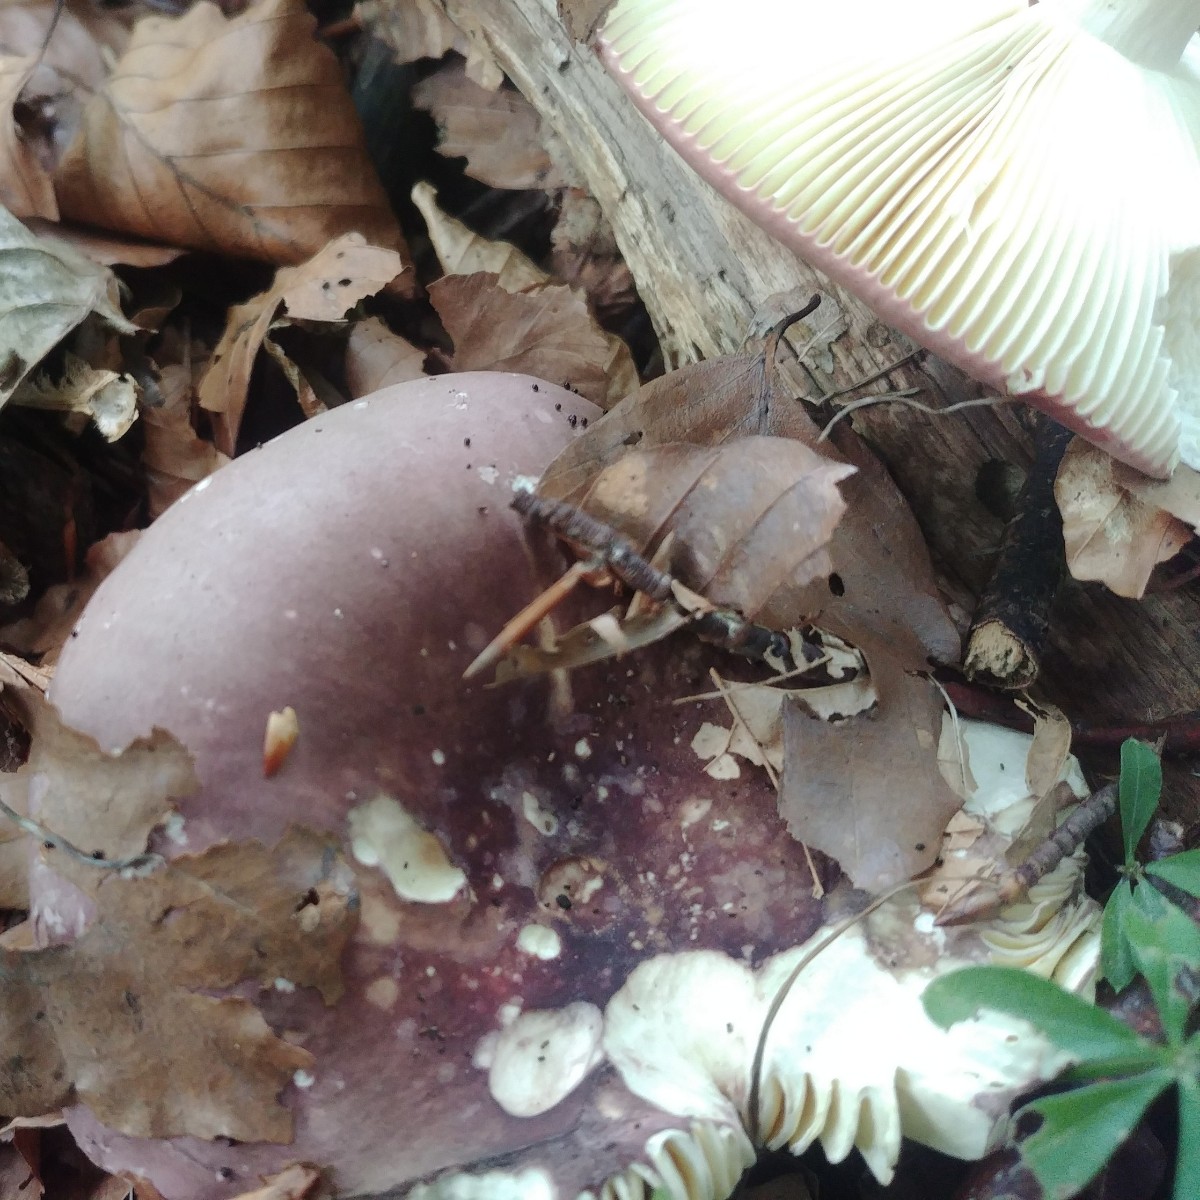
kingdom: Fungi
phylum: Basidiomycota
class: Agaricomycetes
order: Russulales
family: Russulaceae
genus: Russula
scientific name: Russula olivacea
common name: stor skørhat
